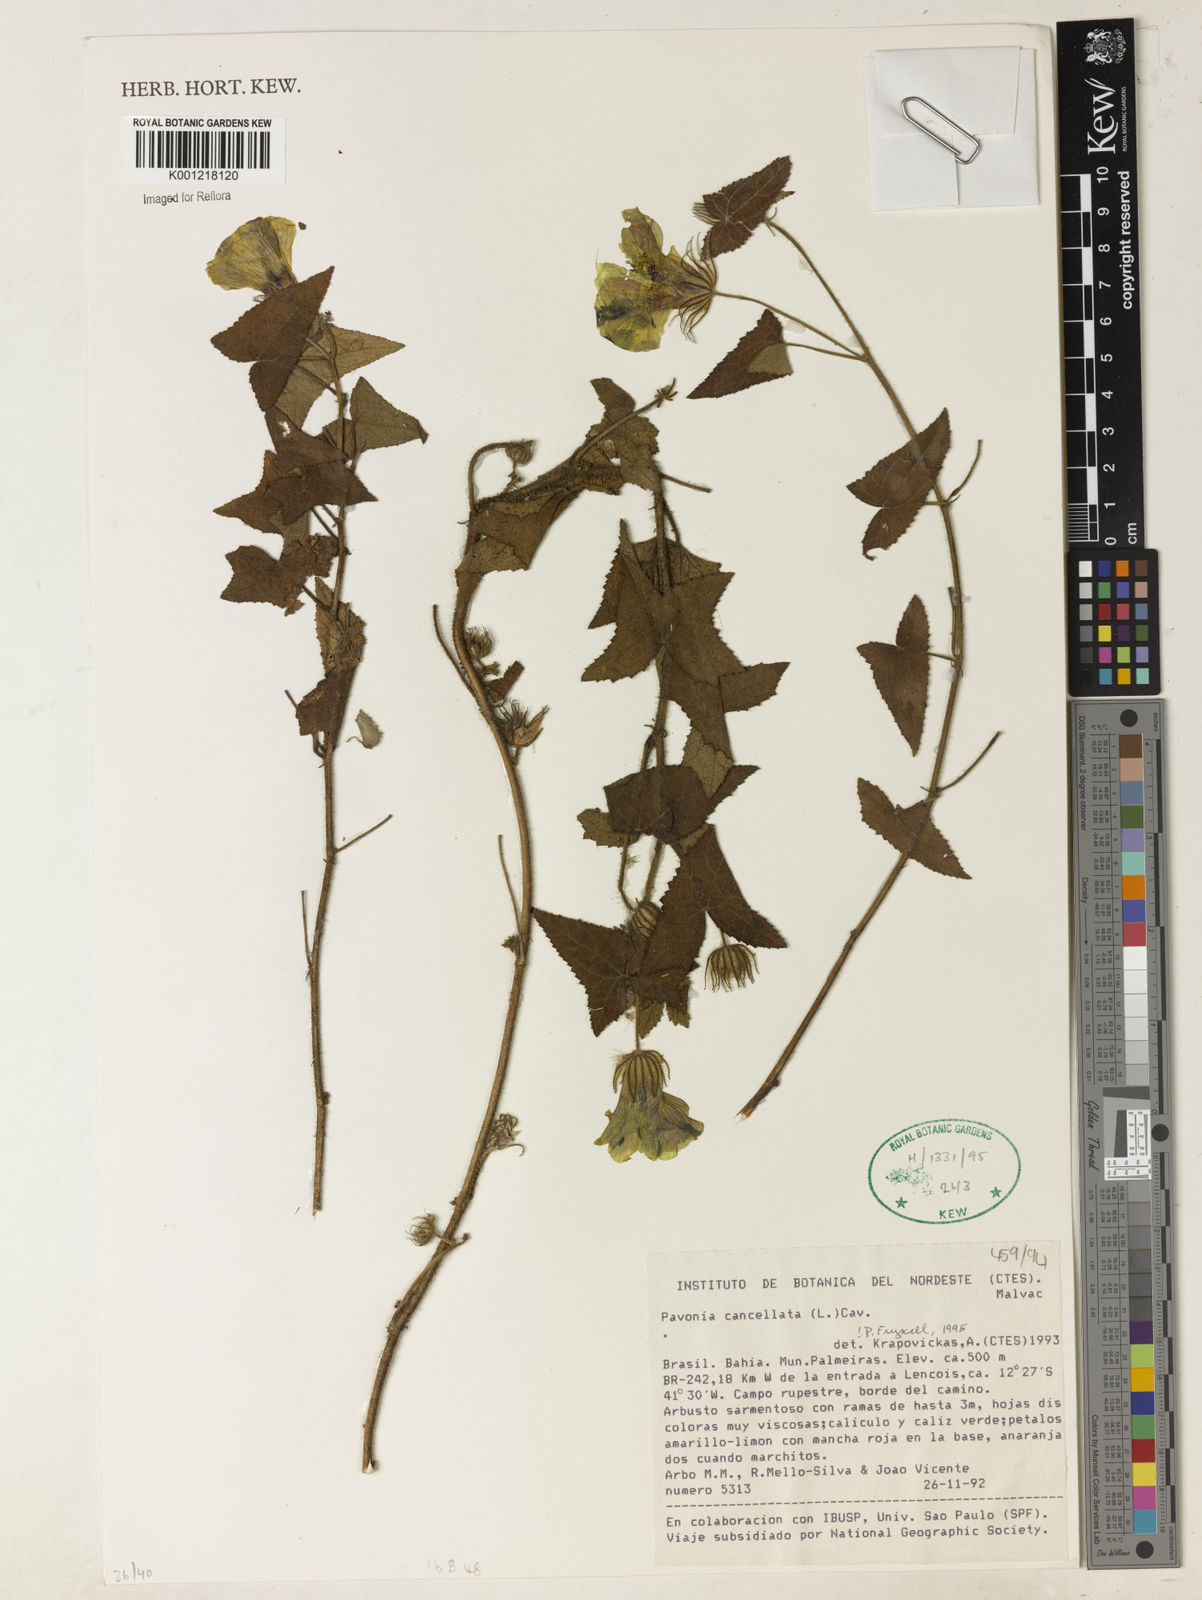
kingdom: Plantae
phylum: Tracheophyta
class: Magnoliopsida
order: Malvales
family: Malvaceae
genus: Pavonia
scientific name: Pavonia cancellata
